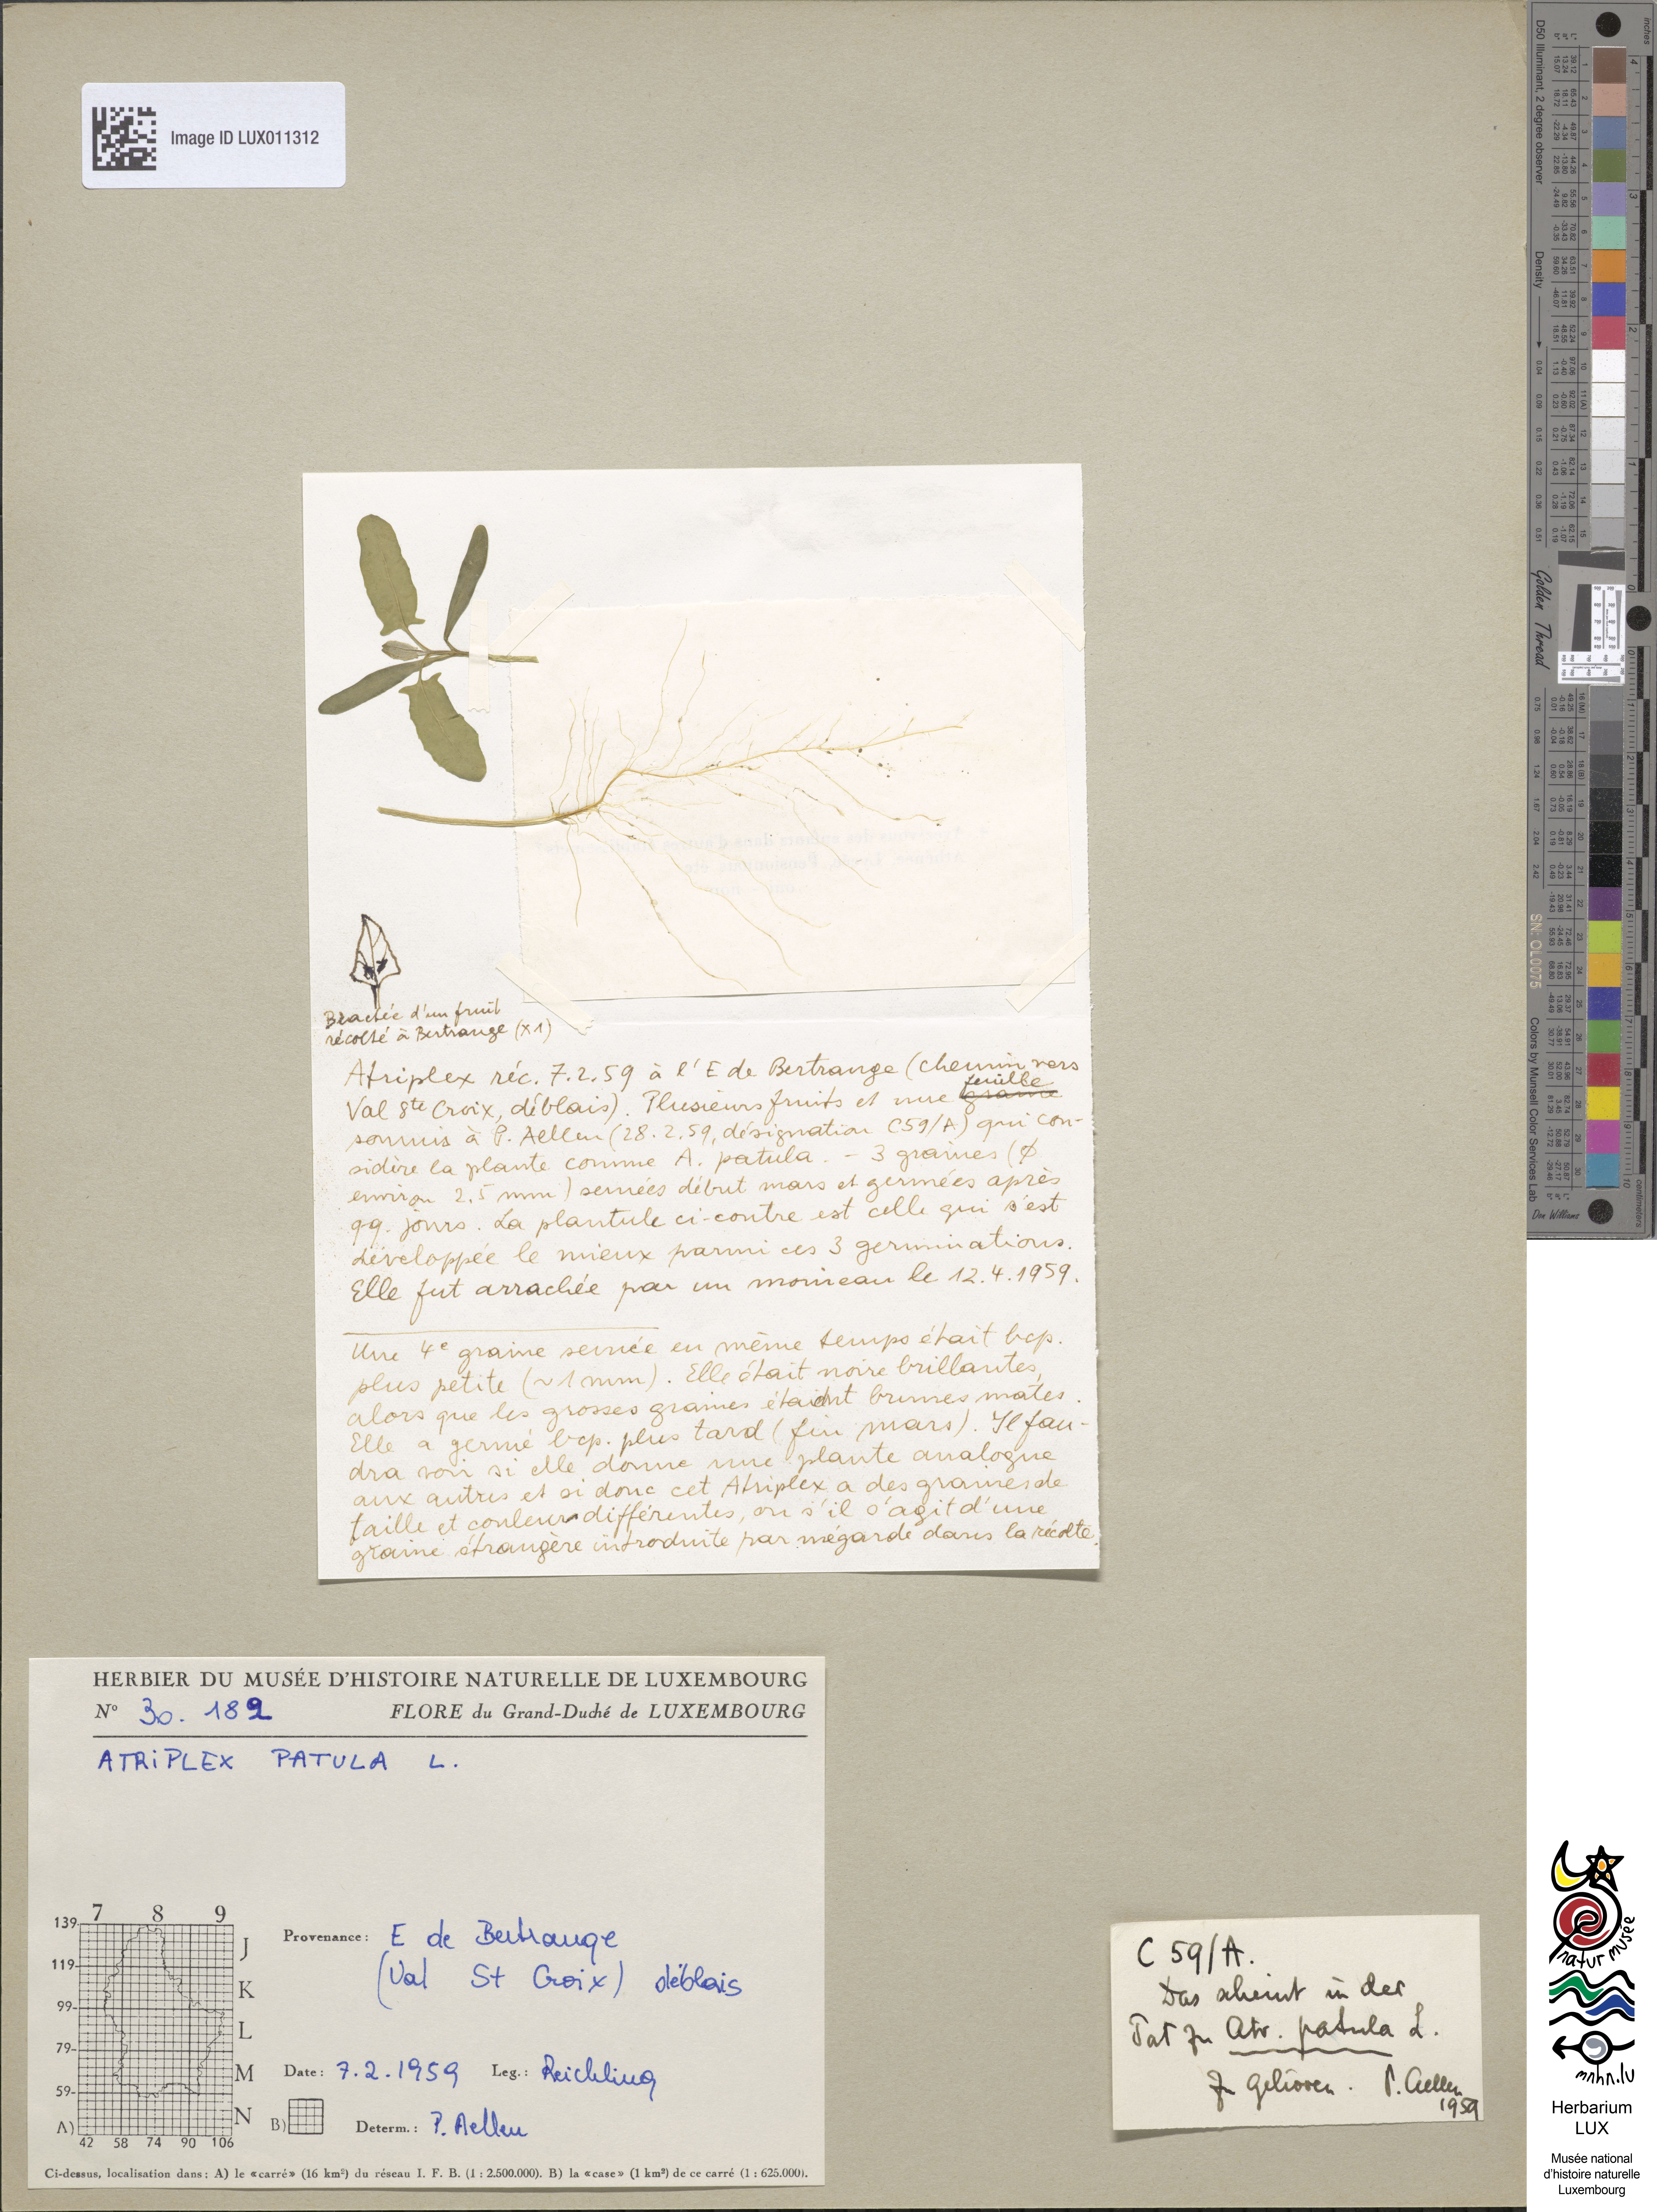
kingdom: Plantae
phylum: Tracheophyta
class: Magnoliopsida
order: Caryophyllales
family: Amaranthaceae
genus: Atriplex
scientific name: Atriplex patula
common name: Common orache
